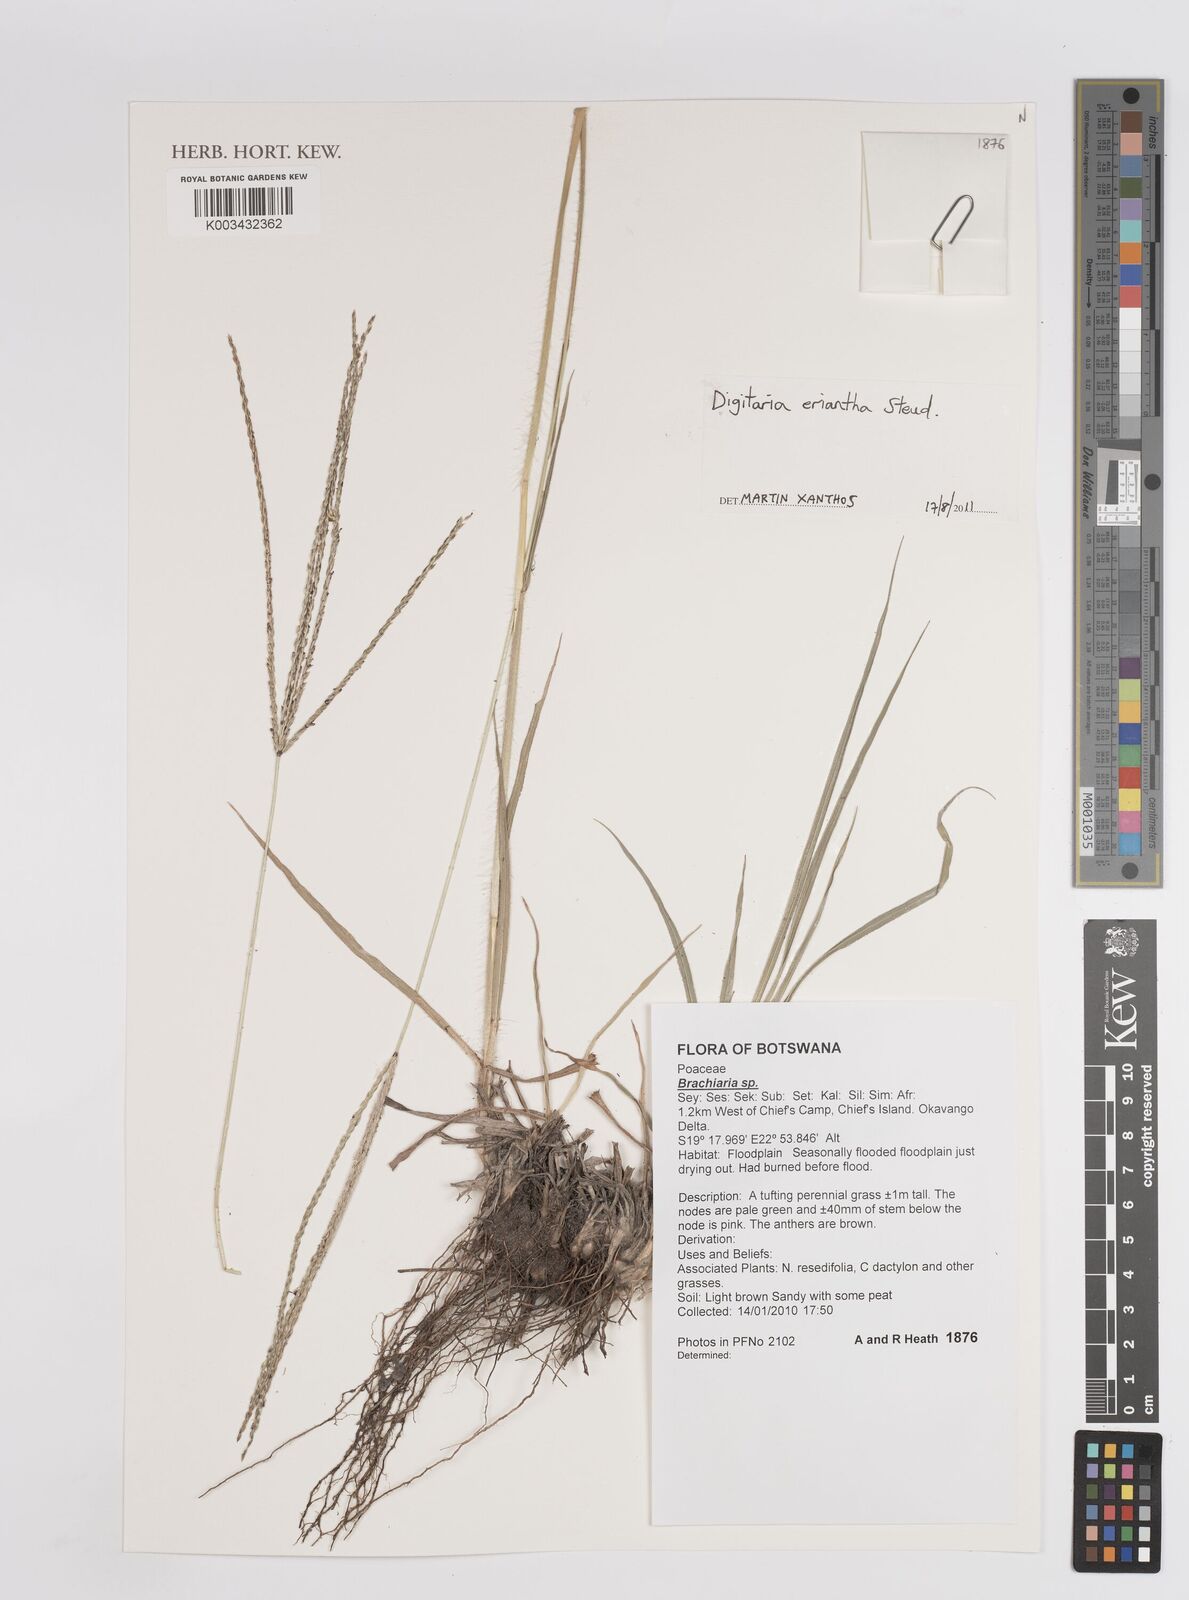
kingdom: Plantae
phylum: Tracheophyta
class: Liliopsida
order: Poales
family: Poaceae
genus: Digitaria
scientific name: Digitaria eriantha
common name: Digitgrass
